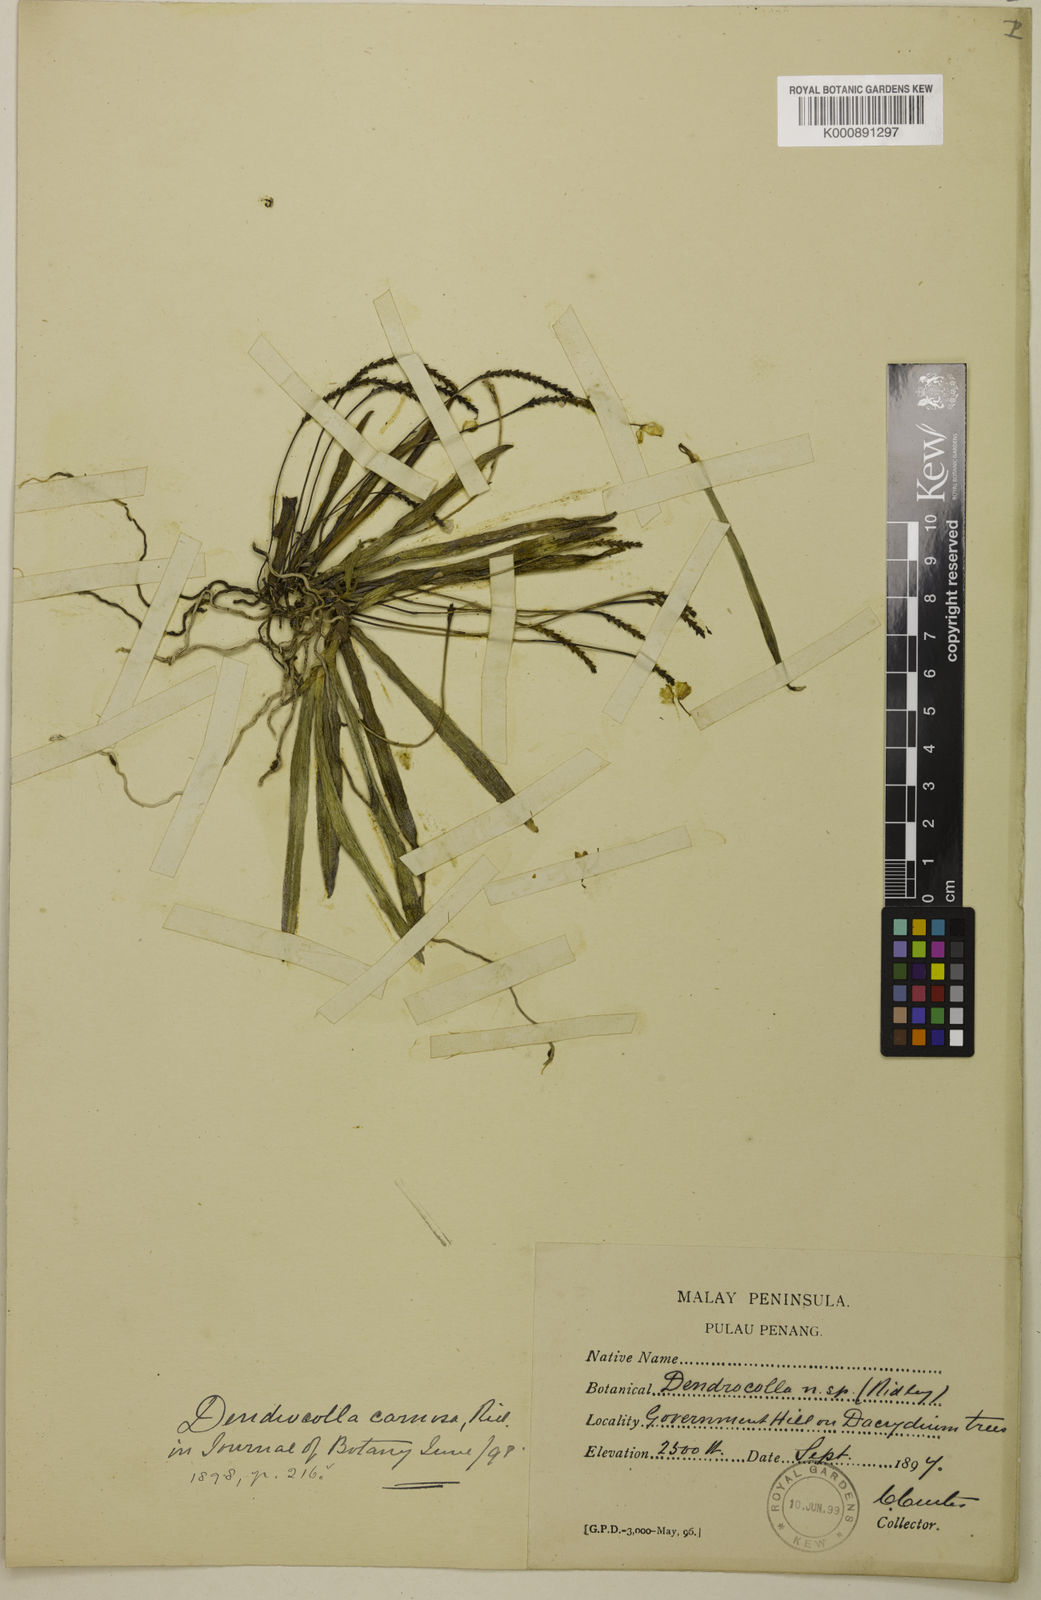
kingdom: Plantae
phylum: Tracheophyta
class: Liliopsida
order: Asparagales
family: Orchidaceae
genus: Thrixspermum
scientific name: Thrixspermum carnosum
